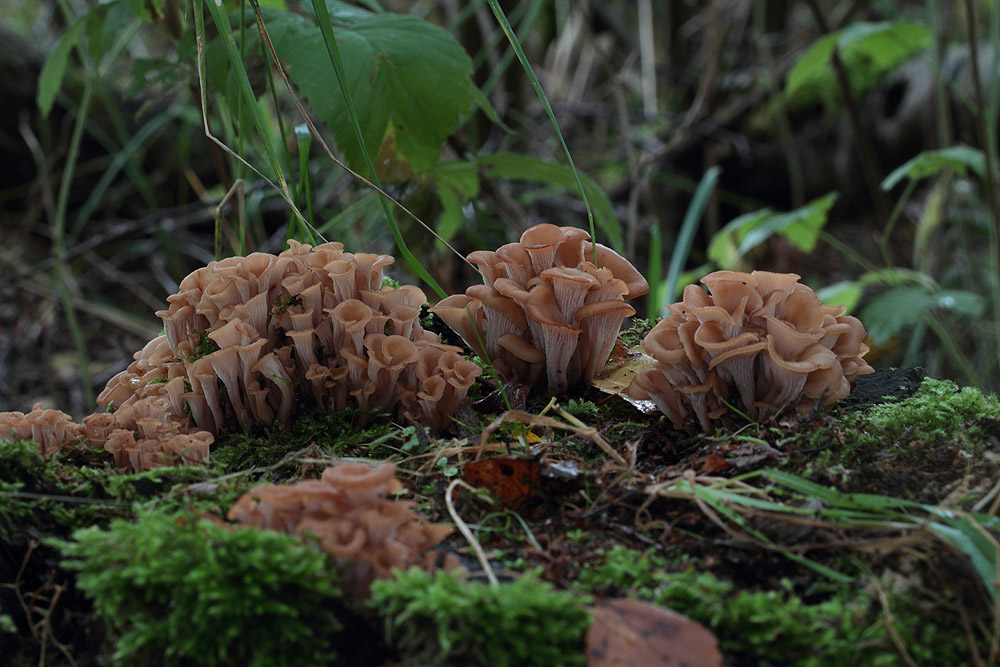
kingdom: Fungi
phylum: Basidiomycota
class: Agaricomycetes
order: Russulales
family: Auriscalpiaceae
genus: Lentinellus
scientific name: Lentinellus cochleatus
